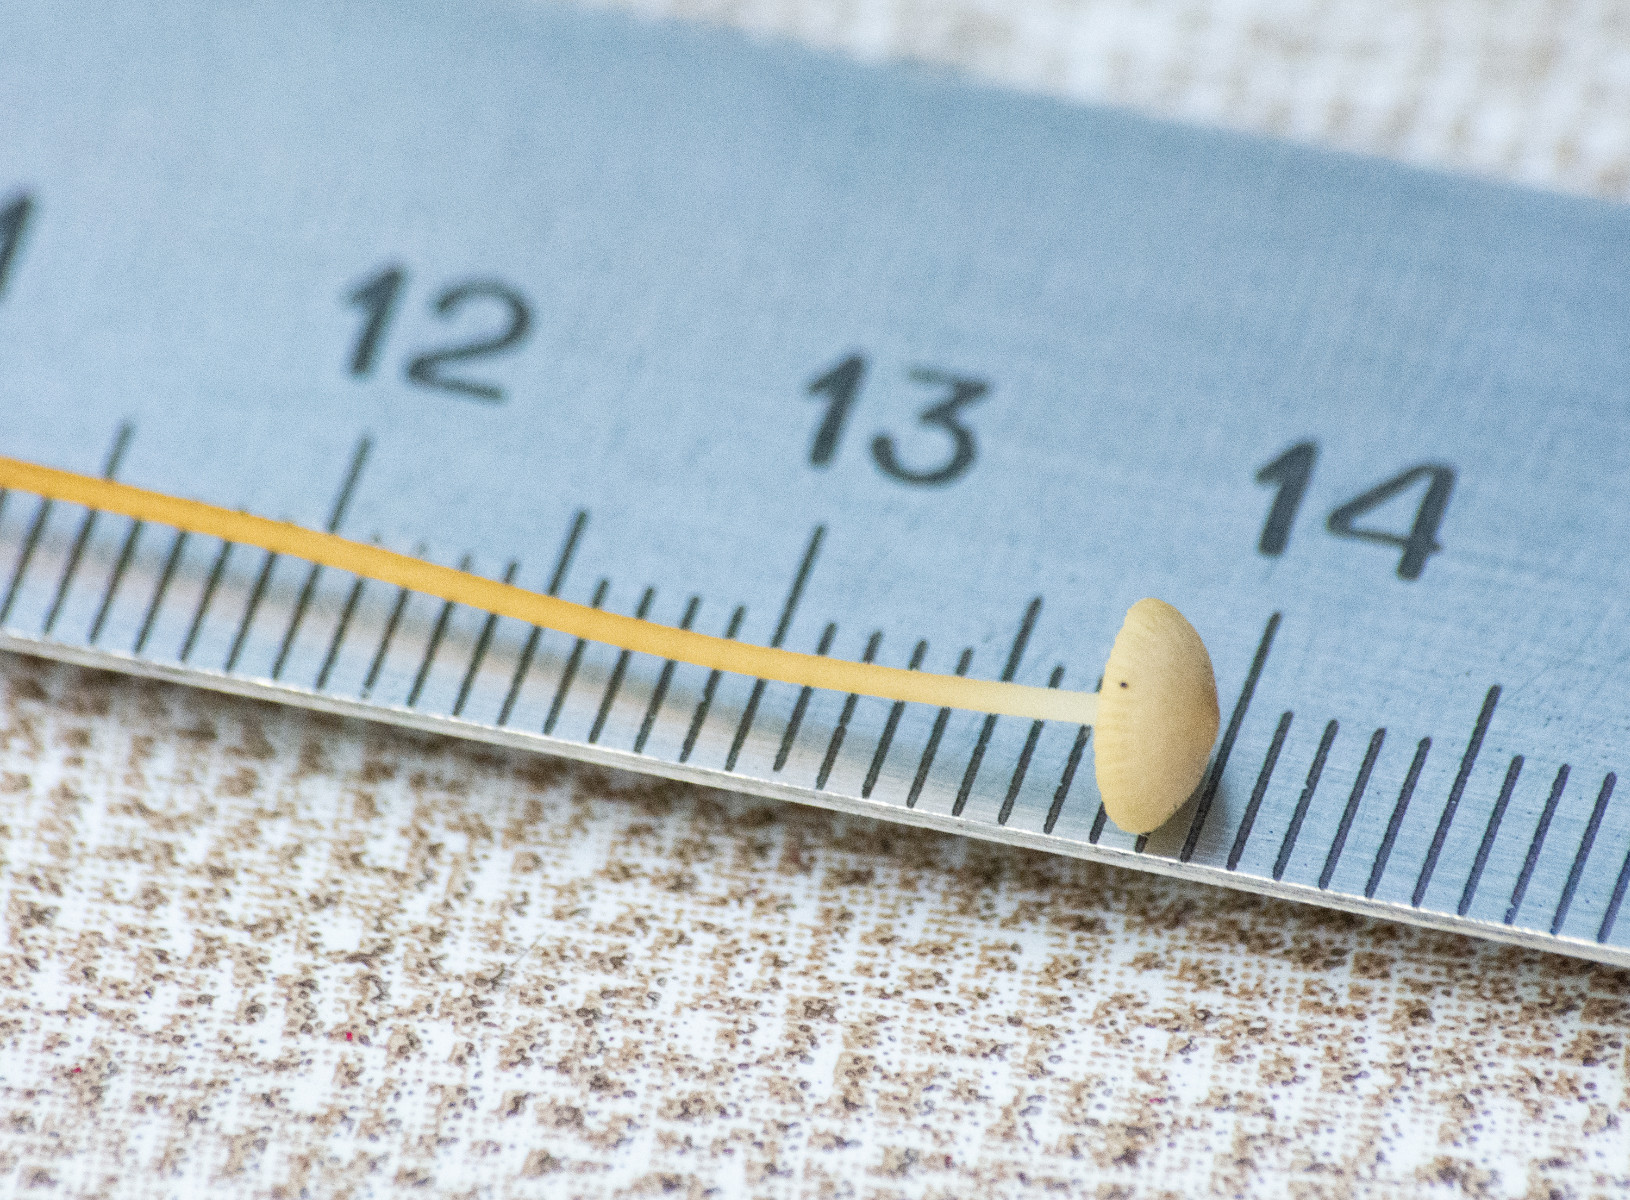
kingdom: Fungi
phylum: Basidiomycota
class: Agaricomycetes
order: Agaricales
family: Physalacriaceae
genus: Strobilurus
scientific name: Strobilurus
